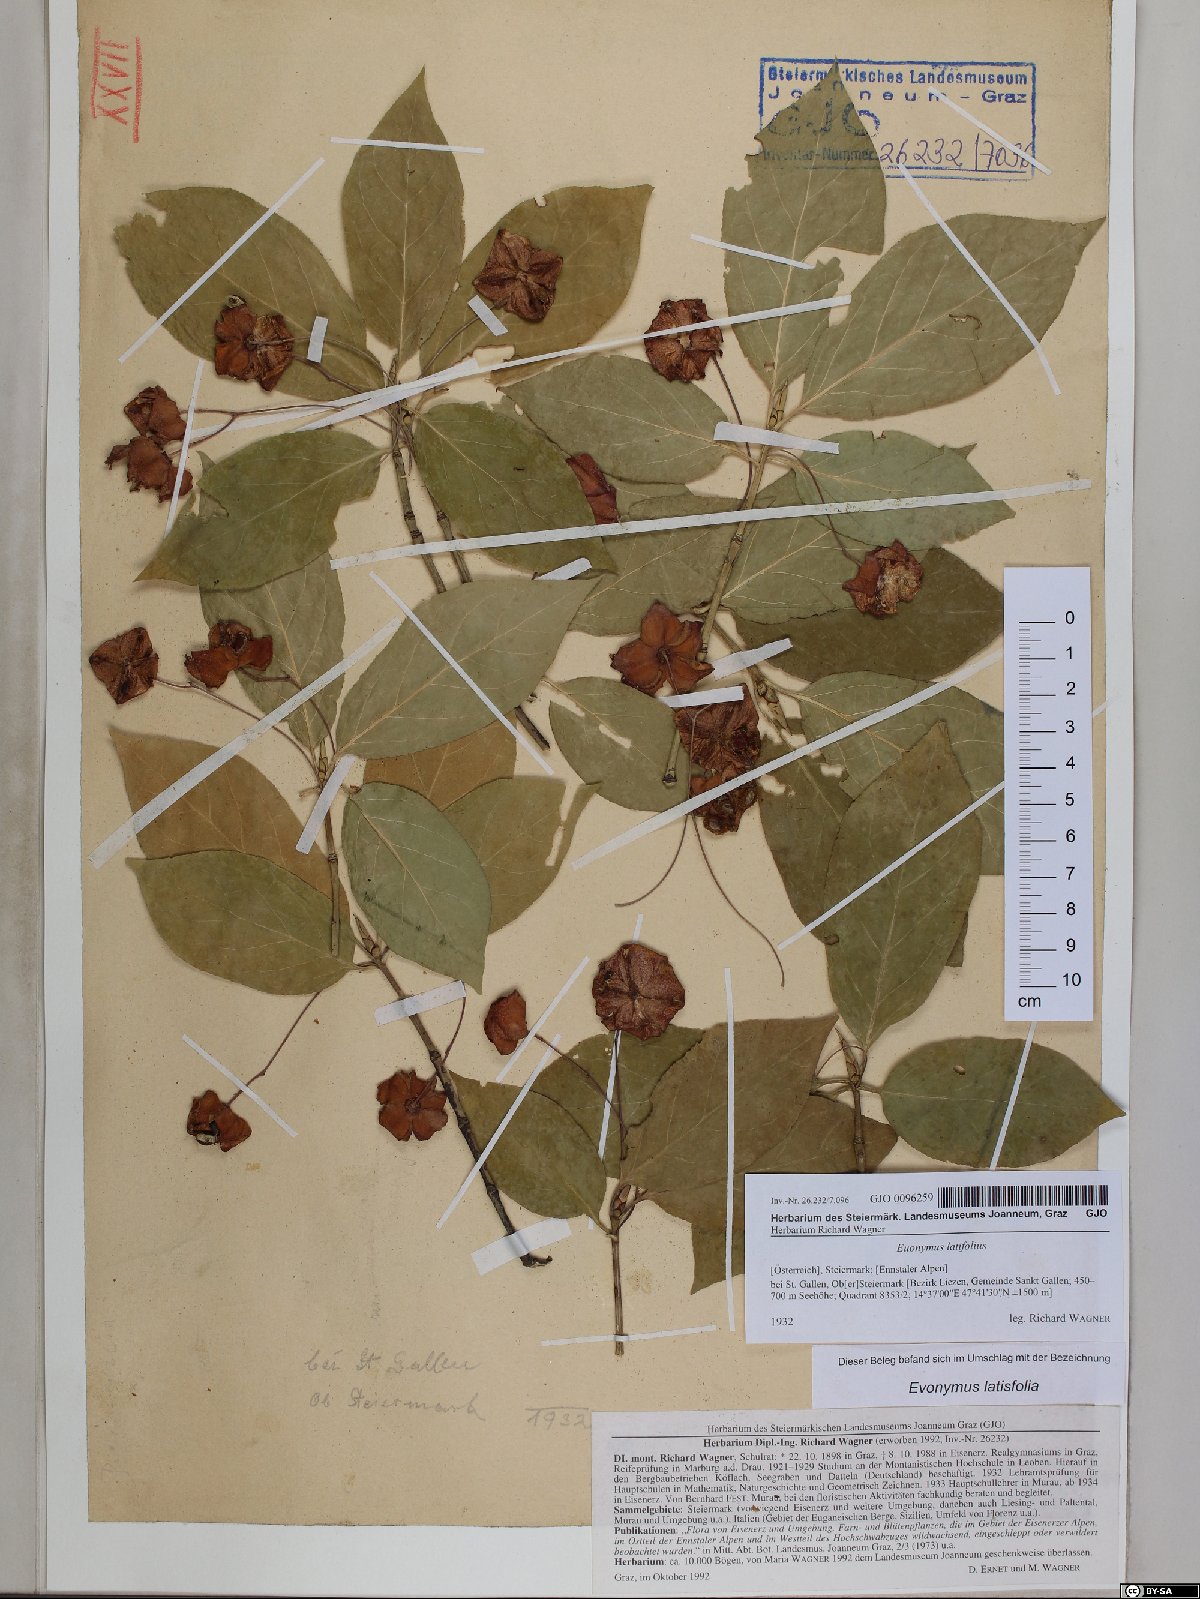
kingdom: Plantae
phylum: Tracheophyta
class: Magnoliopsida
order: Celastrales
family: Celastraceae
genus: Euonymus
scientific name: Euonymus latifolius
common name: Large-leaved spindle
